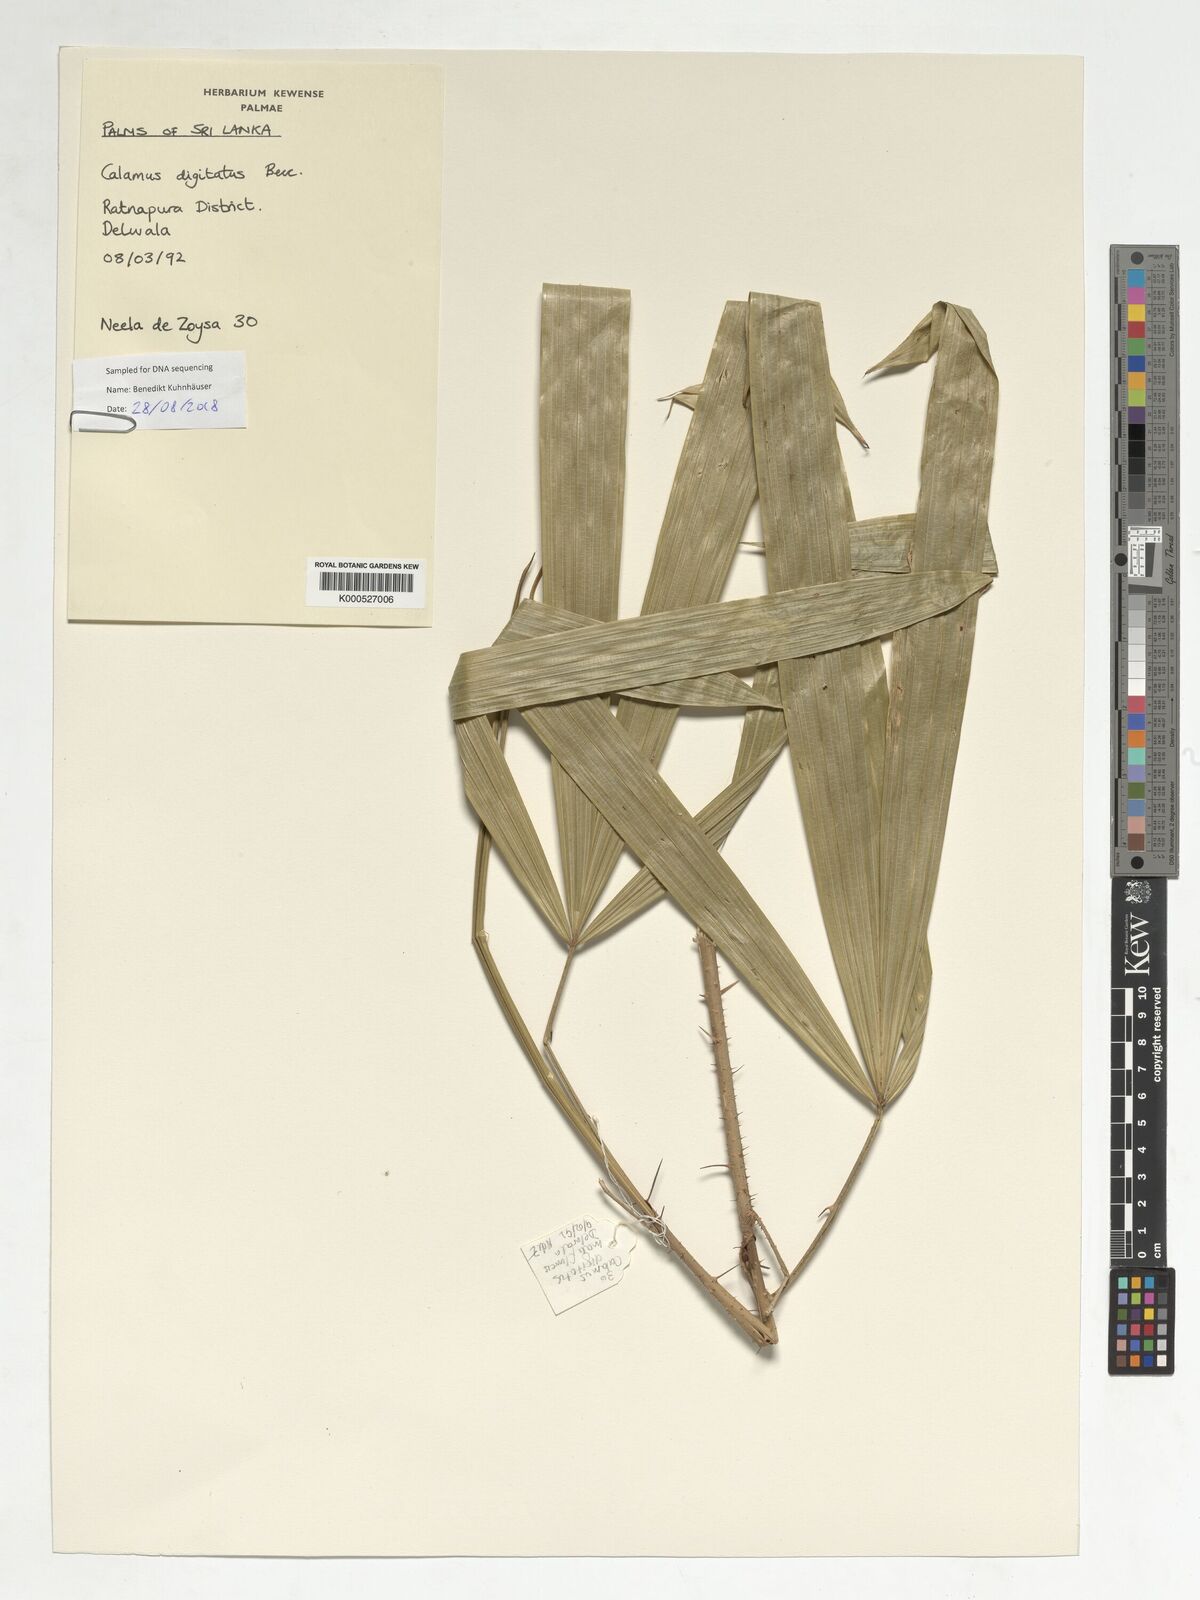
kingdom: Plantae
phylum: Tracheophyta
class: Liliopsida
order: Arecales
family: Arecaceae
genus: Calamus
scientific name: Calamus digitatus
